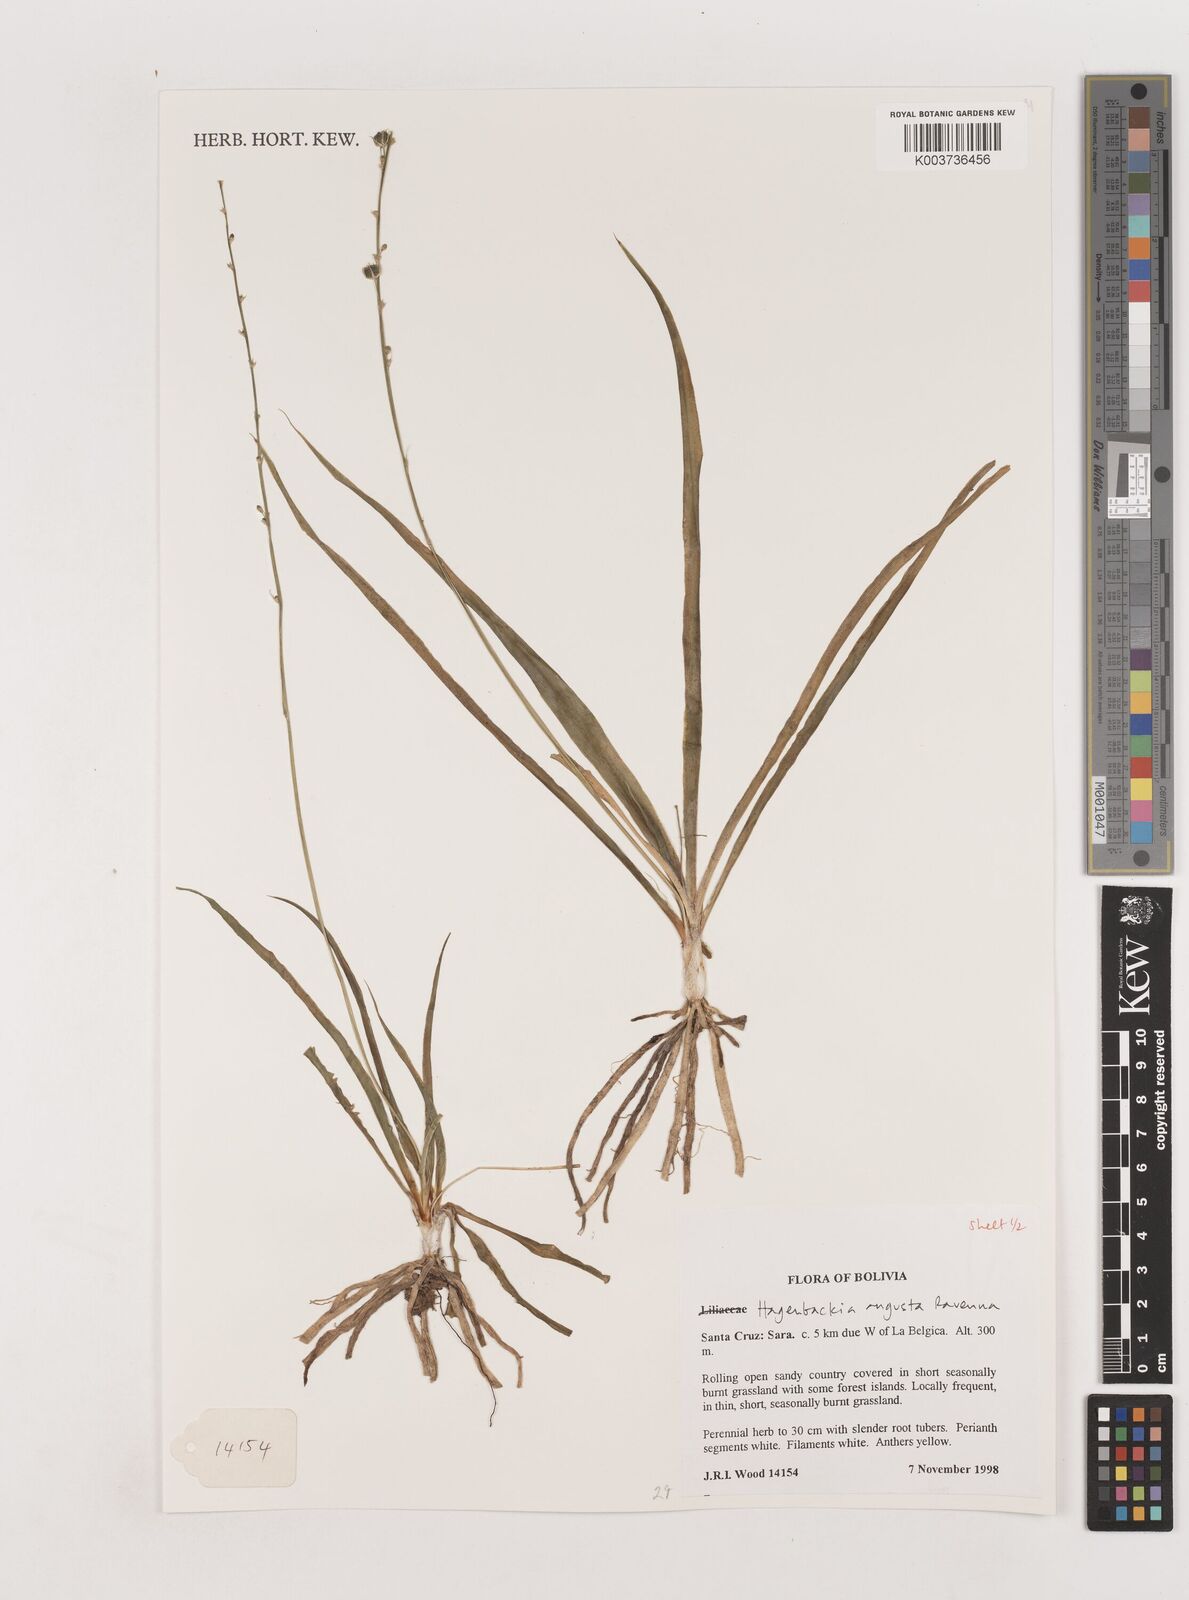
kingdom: Plantae
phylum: Tracheophyta
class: Liliopsida
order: Asparagales
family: Asparagaceae
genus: Hagenbachia
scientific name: Hagenbachia matogrossensis
